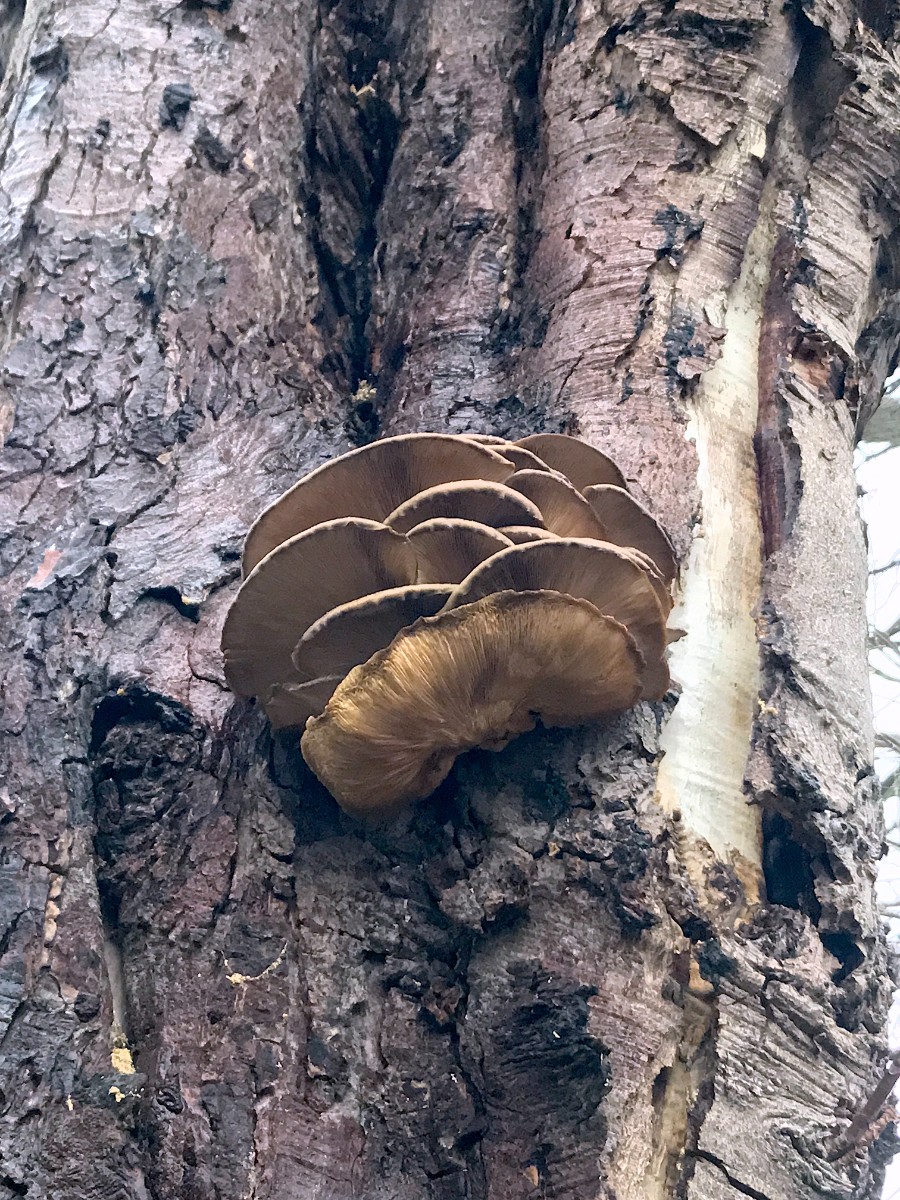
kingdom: Fungi
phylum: Basidiomycota
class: Agaricomycetes
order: Agaricales
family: Pleurotaceae
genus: Pleurotus
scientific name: Pleurotus ostreatus
